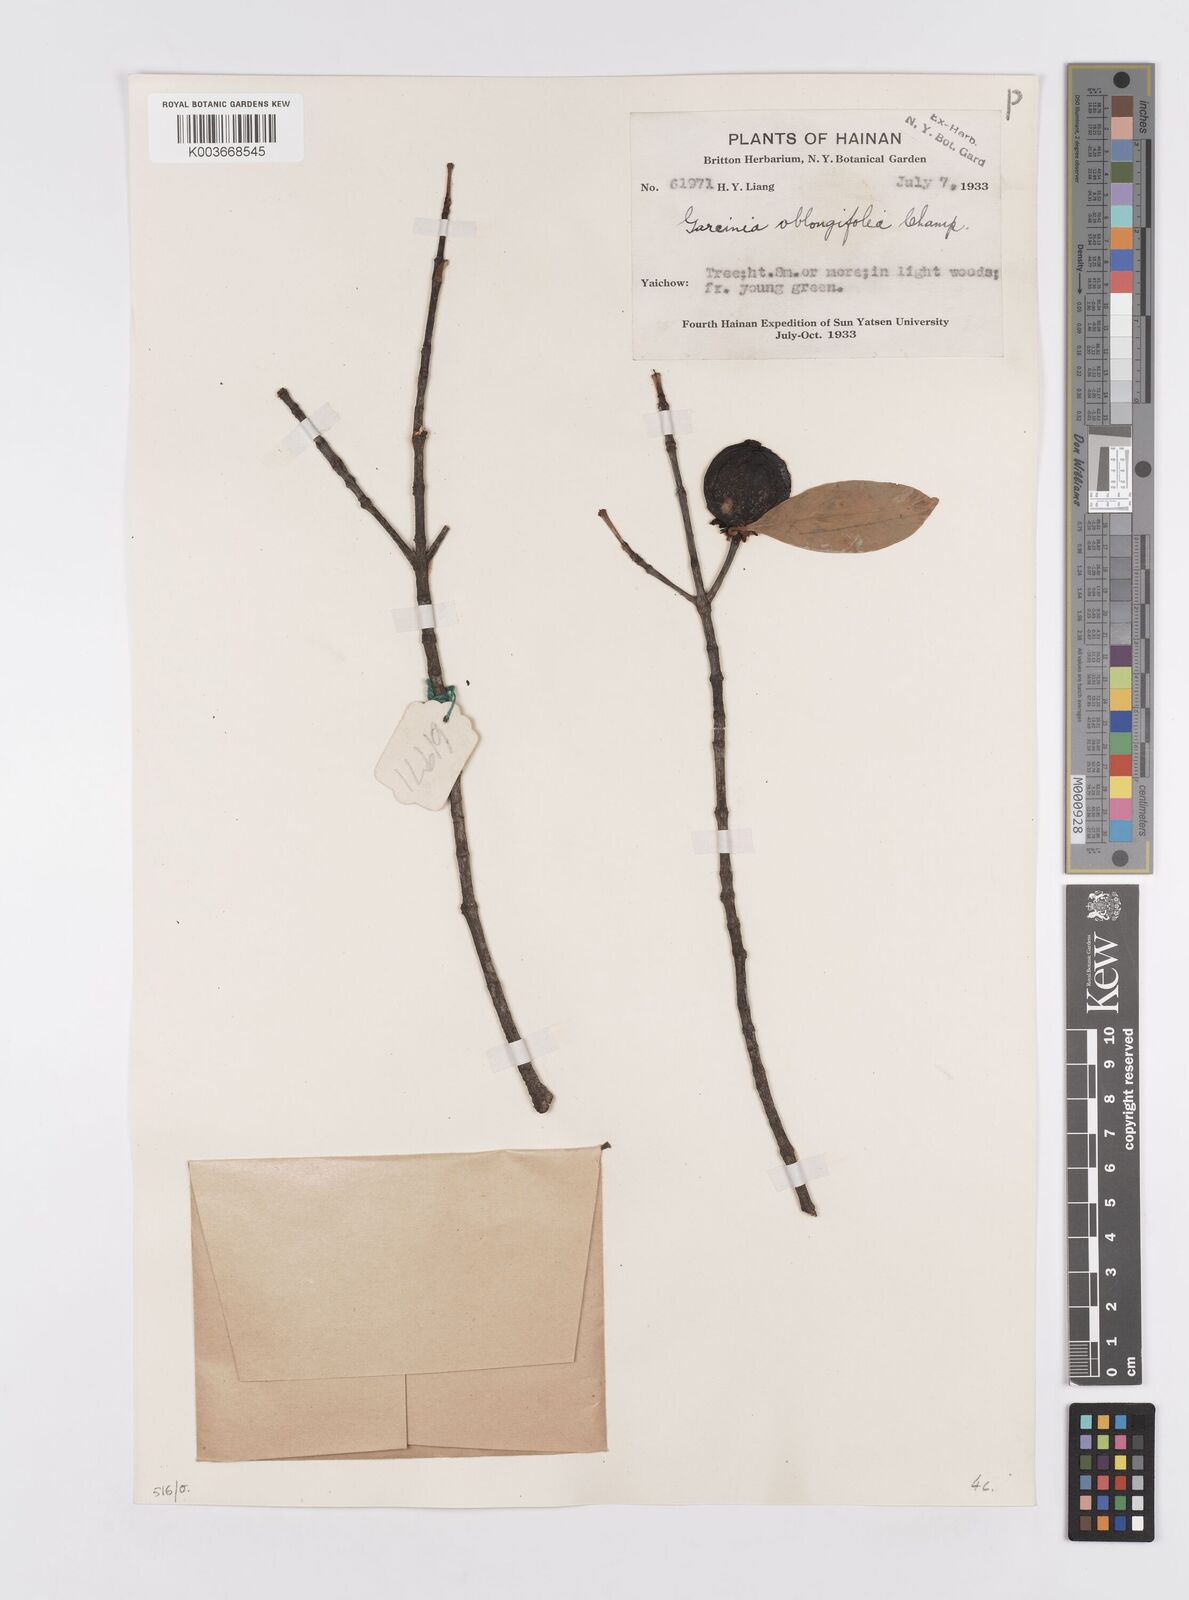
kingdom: Plantae
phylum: Tracheophyta
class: Magnoliopsida
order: Malpighiales
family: Clusiaceae
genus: Garcinia
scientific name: Garcinia oblongifolia
